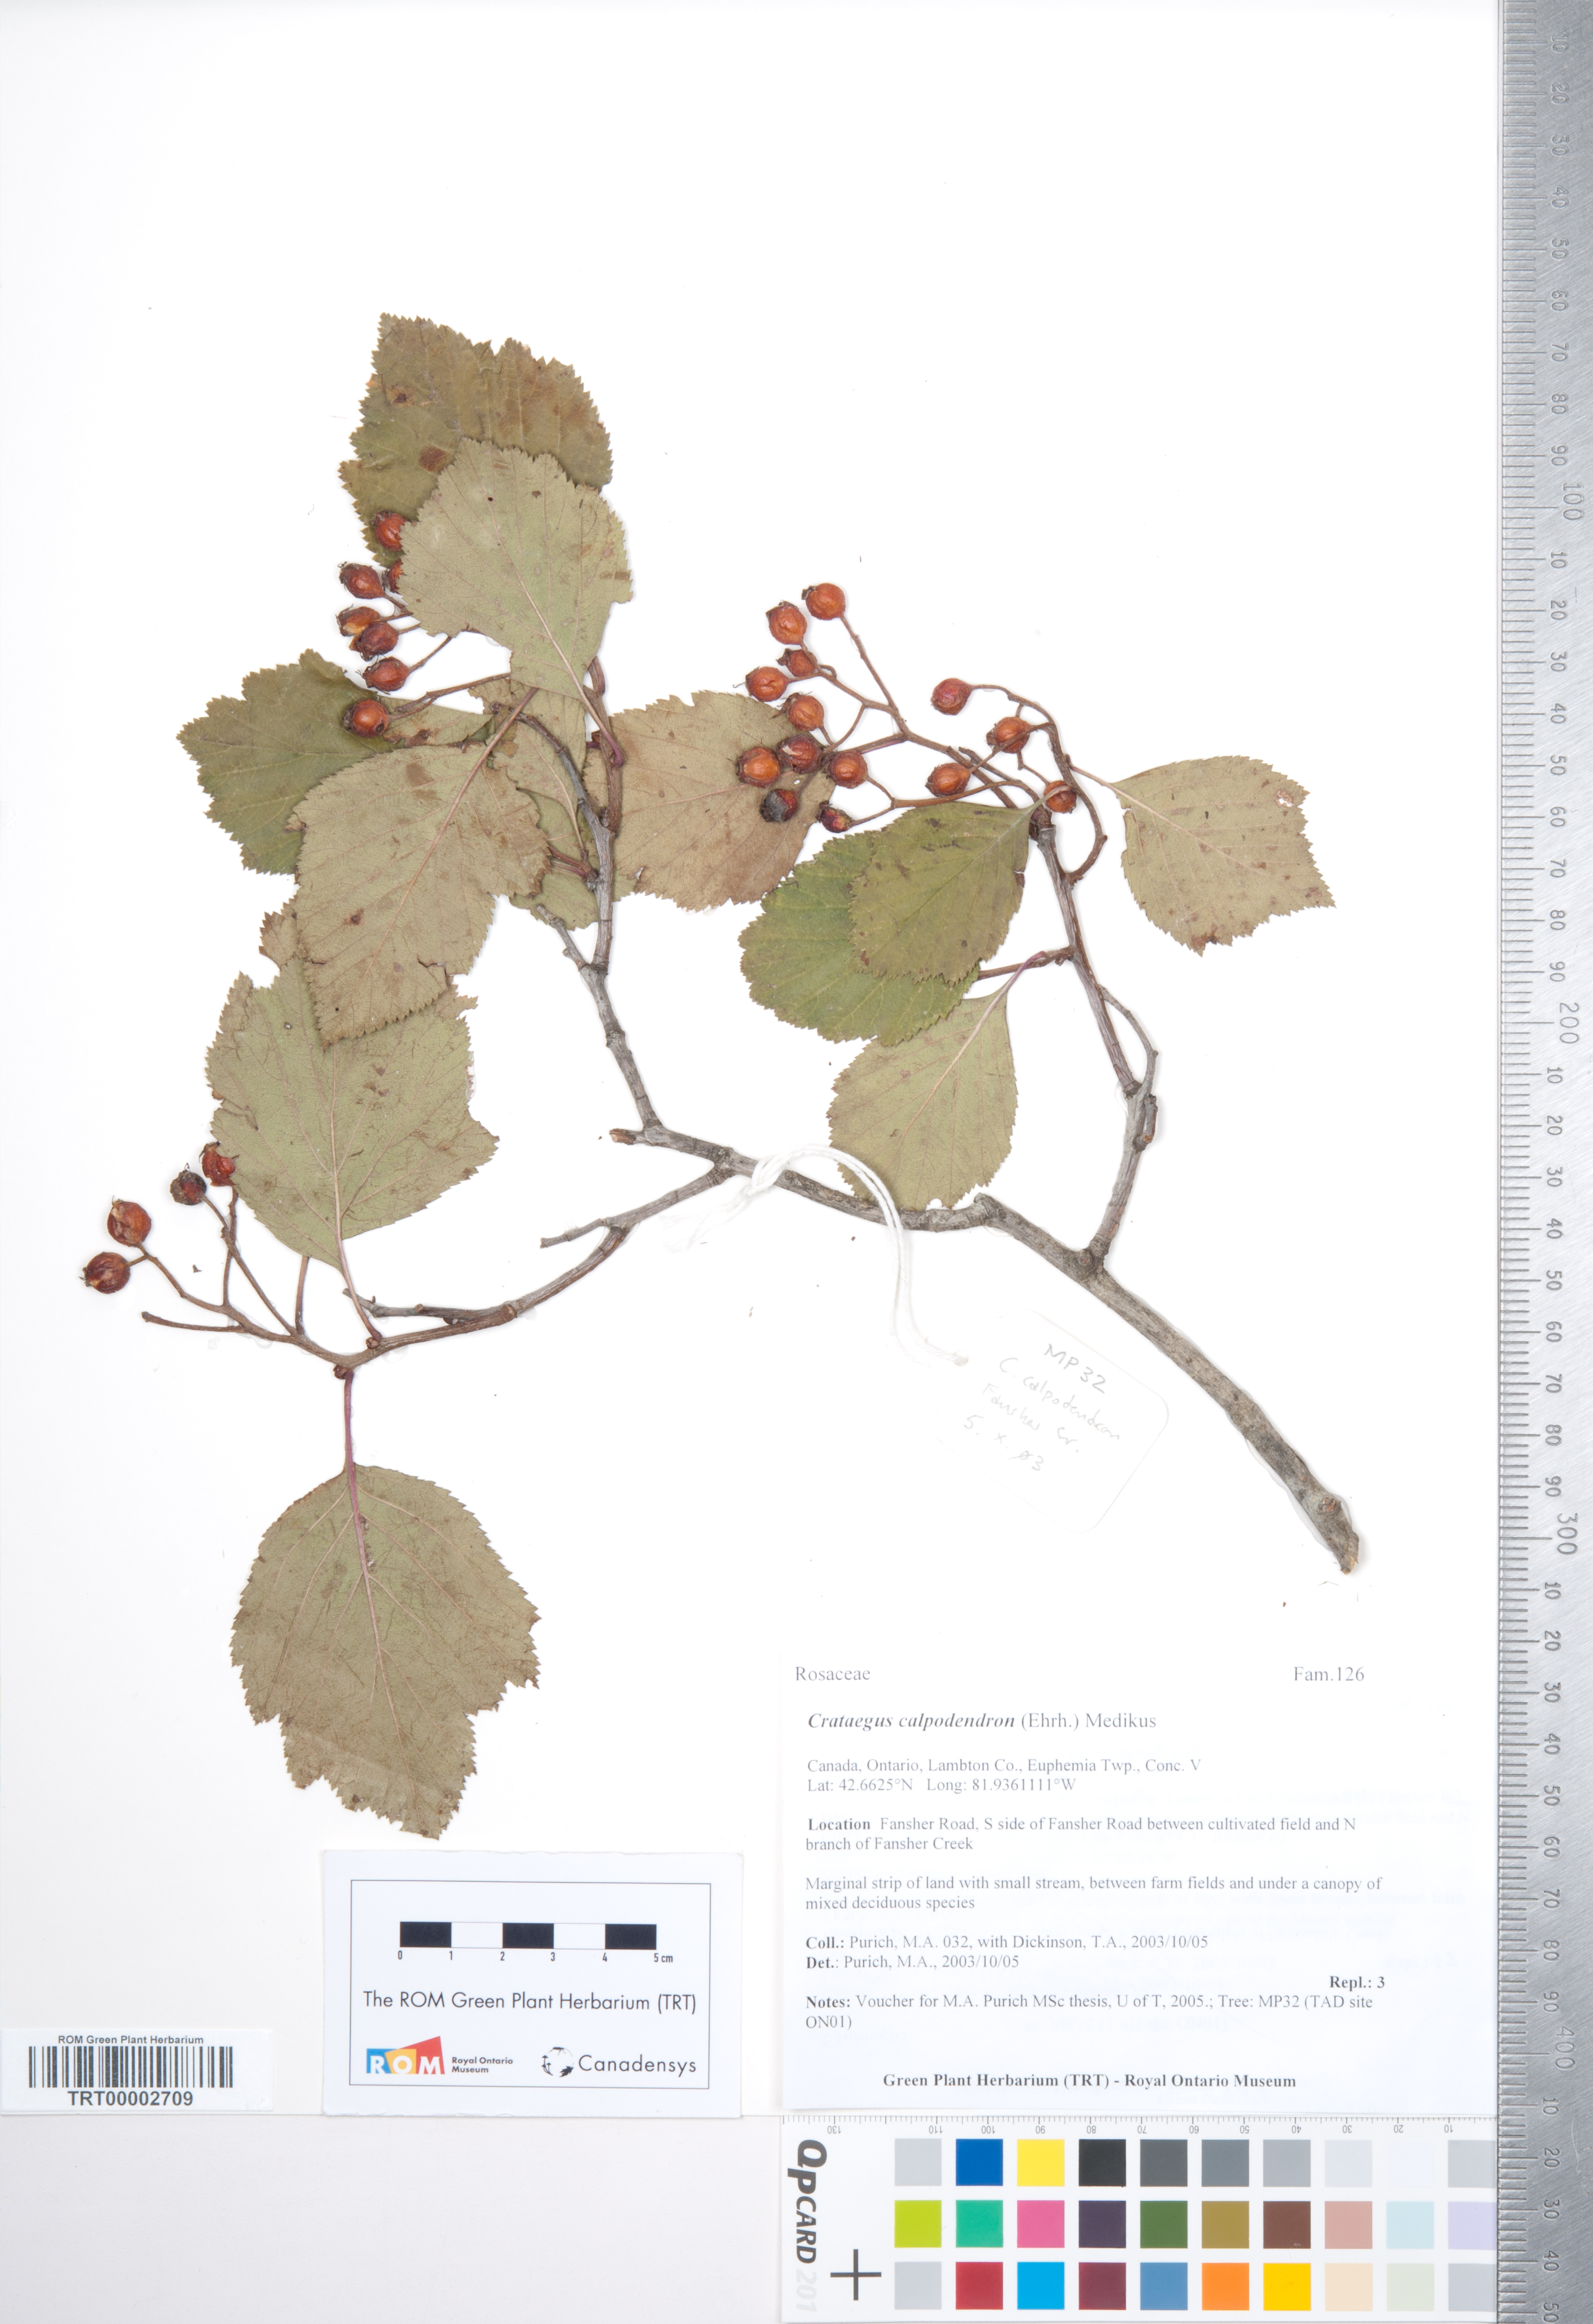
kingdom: Plantae
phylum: Tracheophyta
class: Magnoliopsida
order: Rosales
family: Rosaceae
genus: Crataegus
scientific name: Crataegus calpodendron
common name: Pear hawthorn
